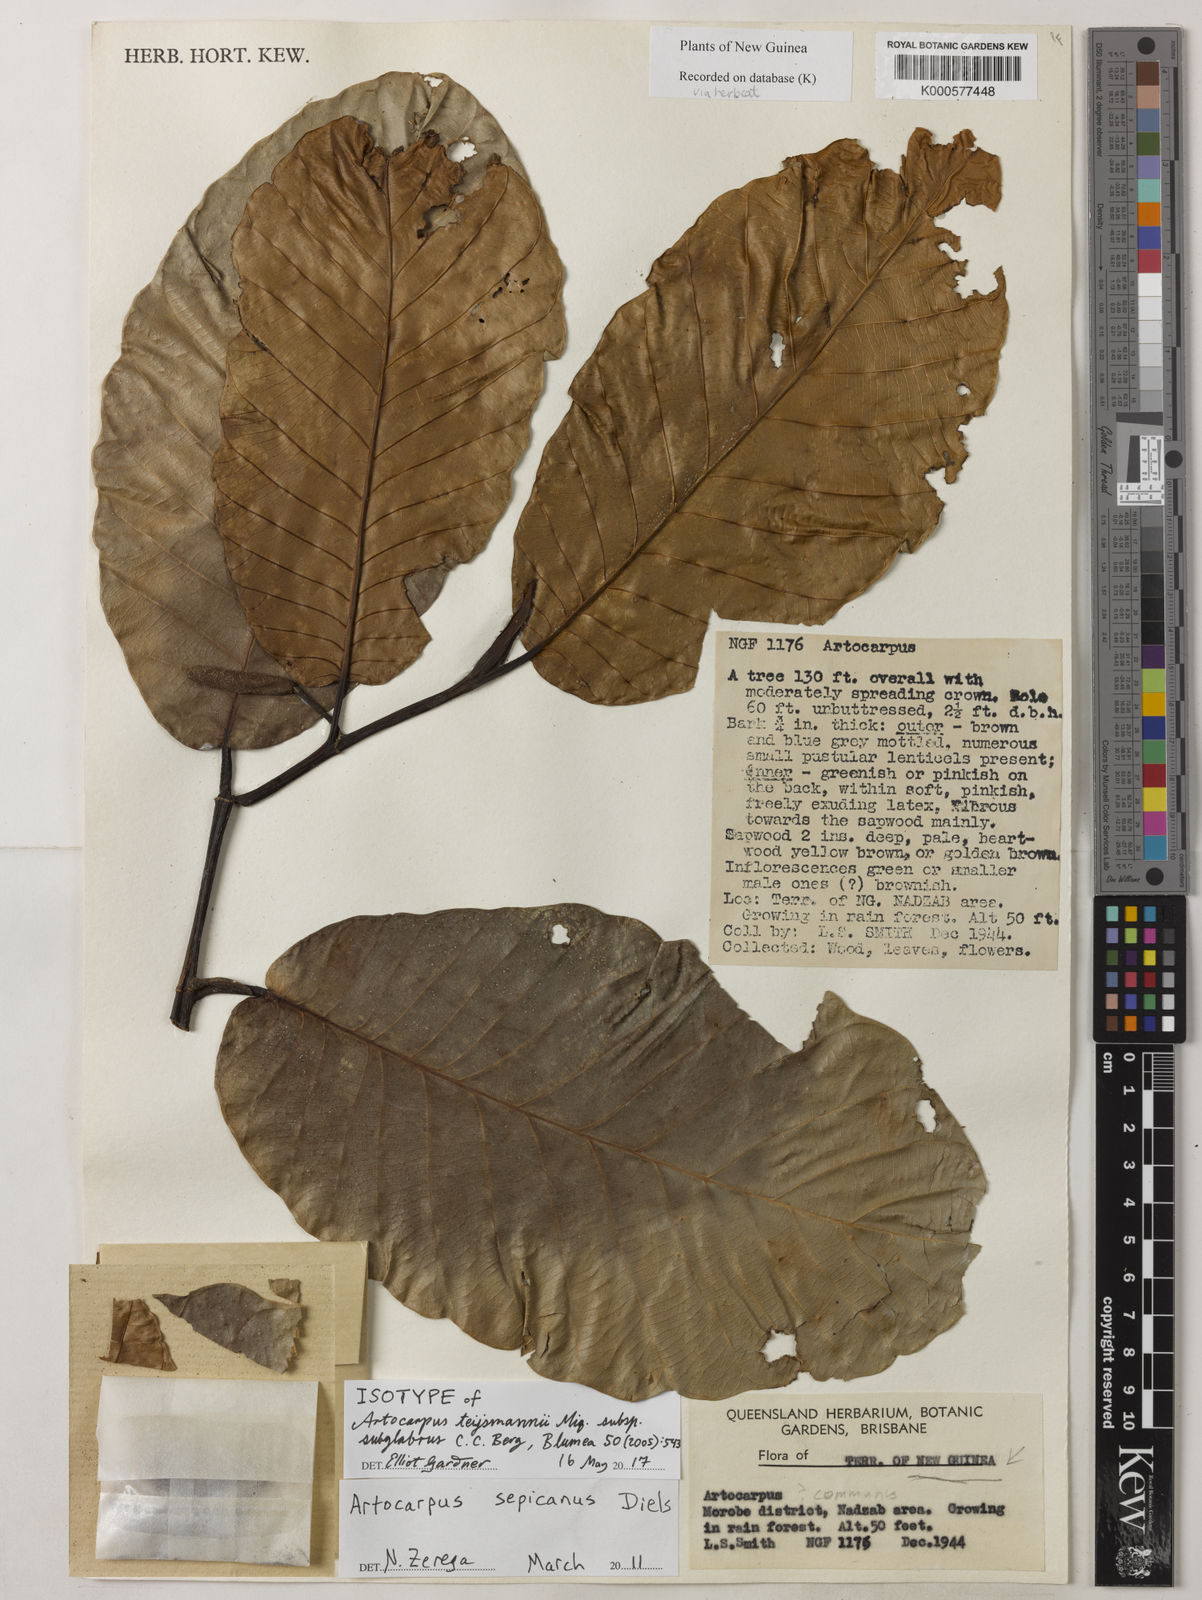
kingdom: Plantae
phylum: Tracheophyta
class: Magnoliopsida
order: Rosales
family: Moraceae
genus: Artocarpus
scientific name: Artocarpus sepicanus
